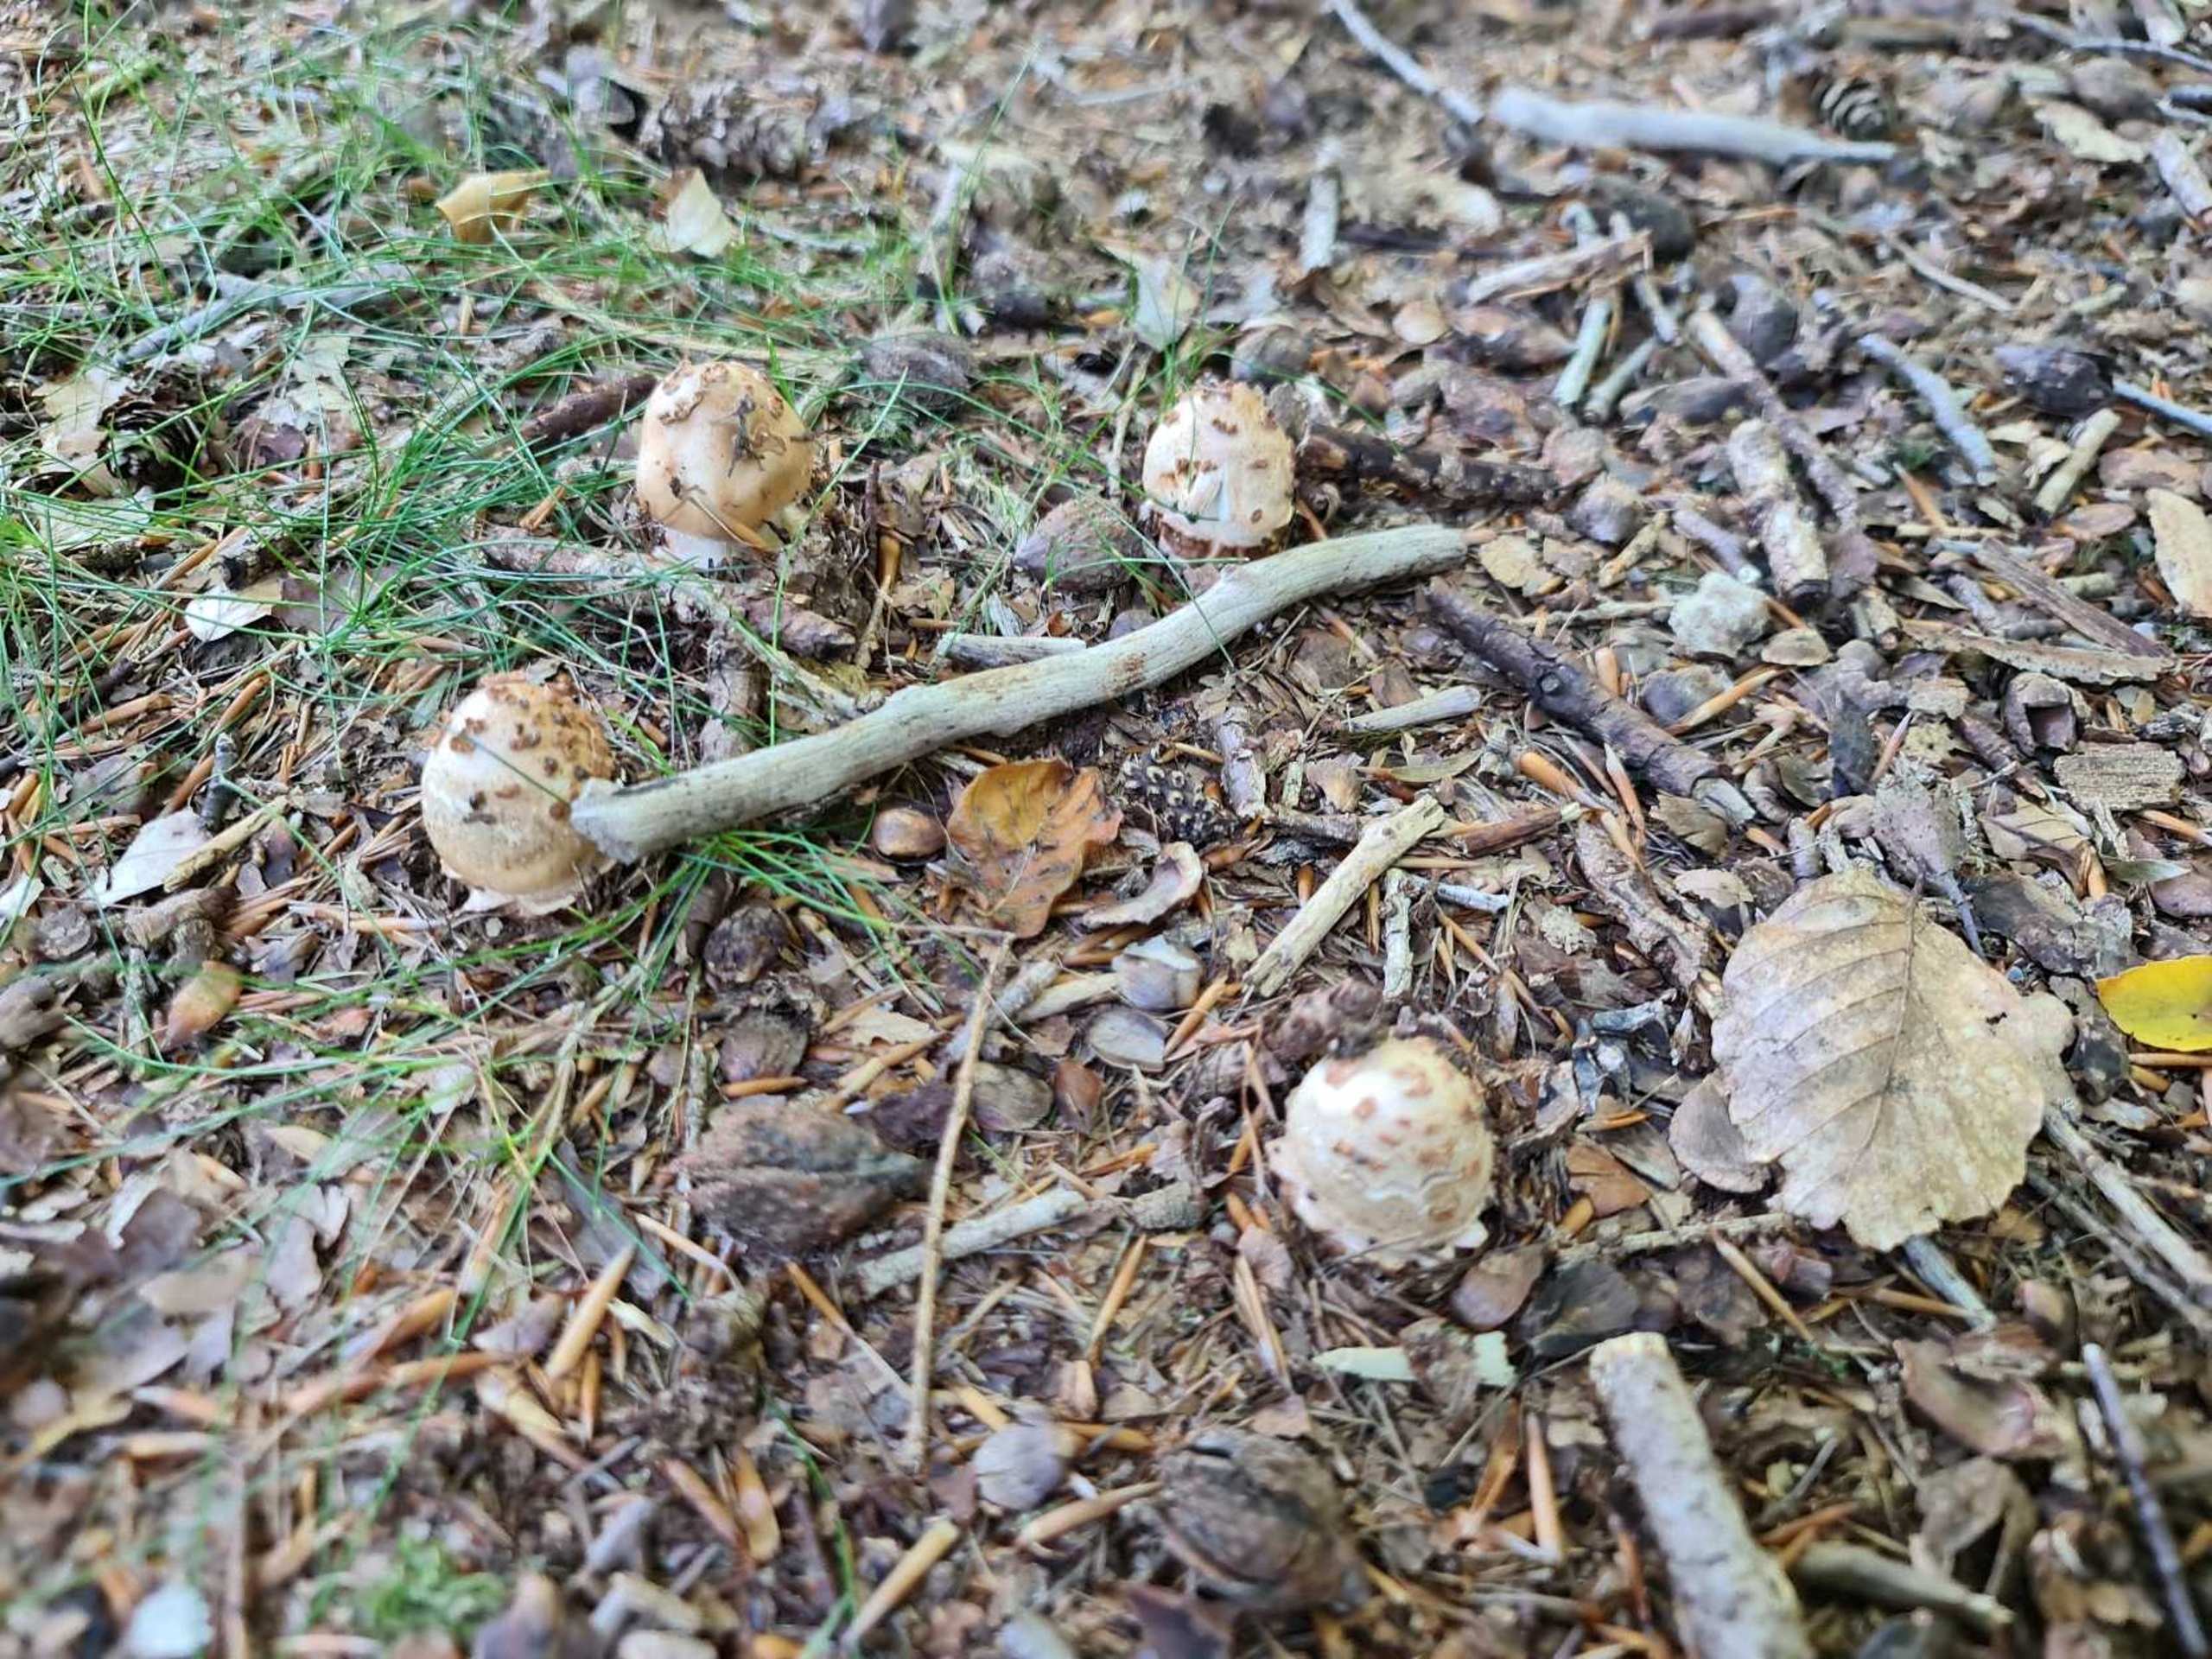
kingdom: Fungi
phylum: Basidiomycota
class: Agaricomycetes
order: Agaricales
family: Amanitaceae
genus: Amanita
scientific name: Amanita rubescens
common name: Rødmende fluesvamp
